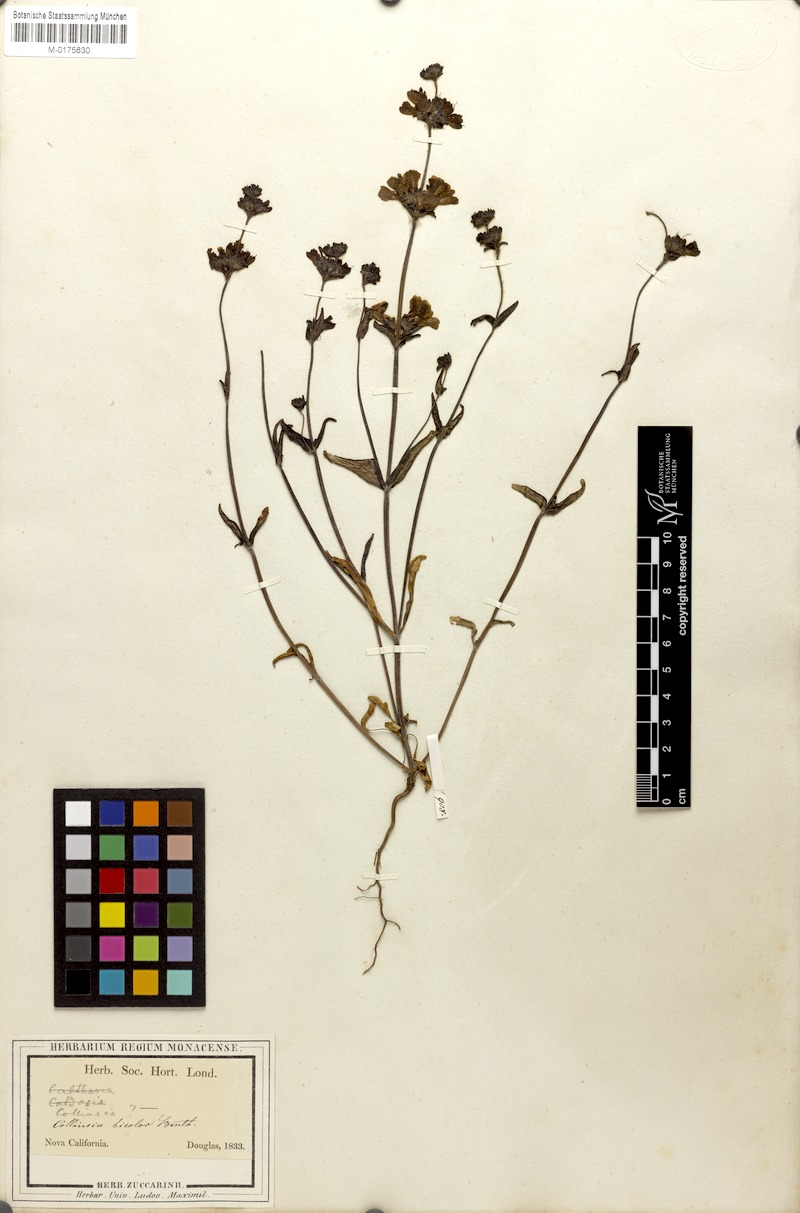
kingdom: Plantae
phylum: Tracheophyta
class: Magnoliopsida
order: Lamiales
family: Plantaginaceae
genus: Collinsia
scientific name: Collinsia heterophylla
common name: Chinese-houses
